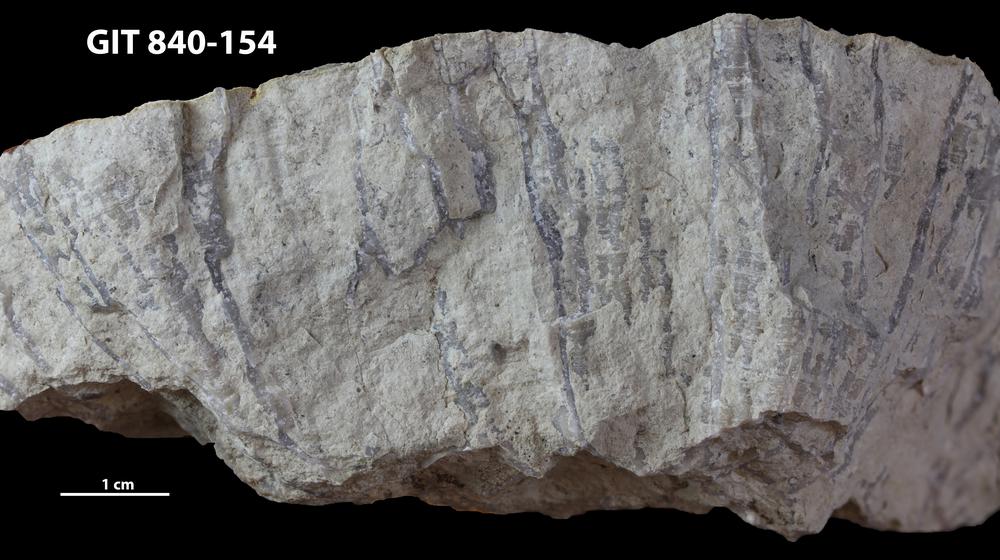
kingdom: Animalia
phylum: Cnidaria
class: Anthozoa
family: Cateniporidae
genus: Catenipora
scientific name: Catenipora
